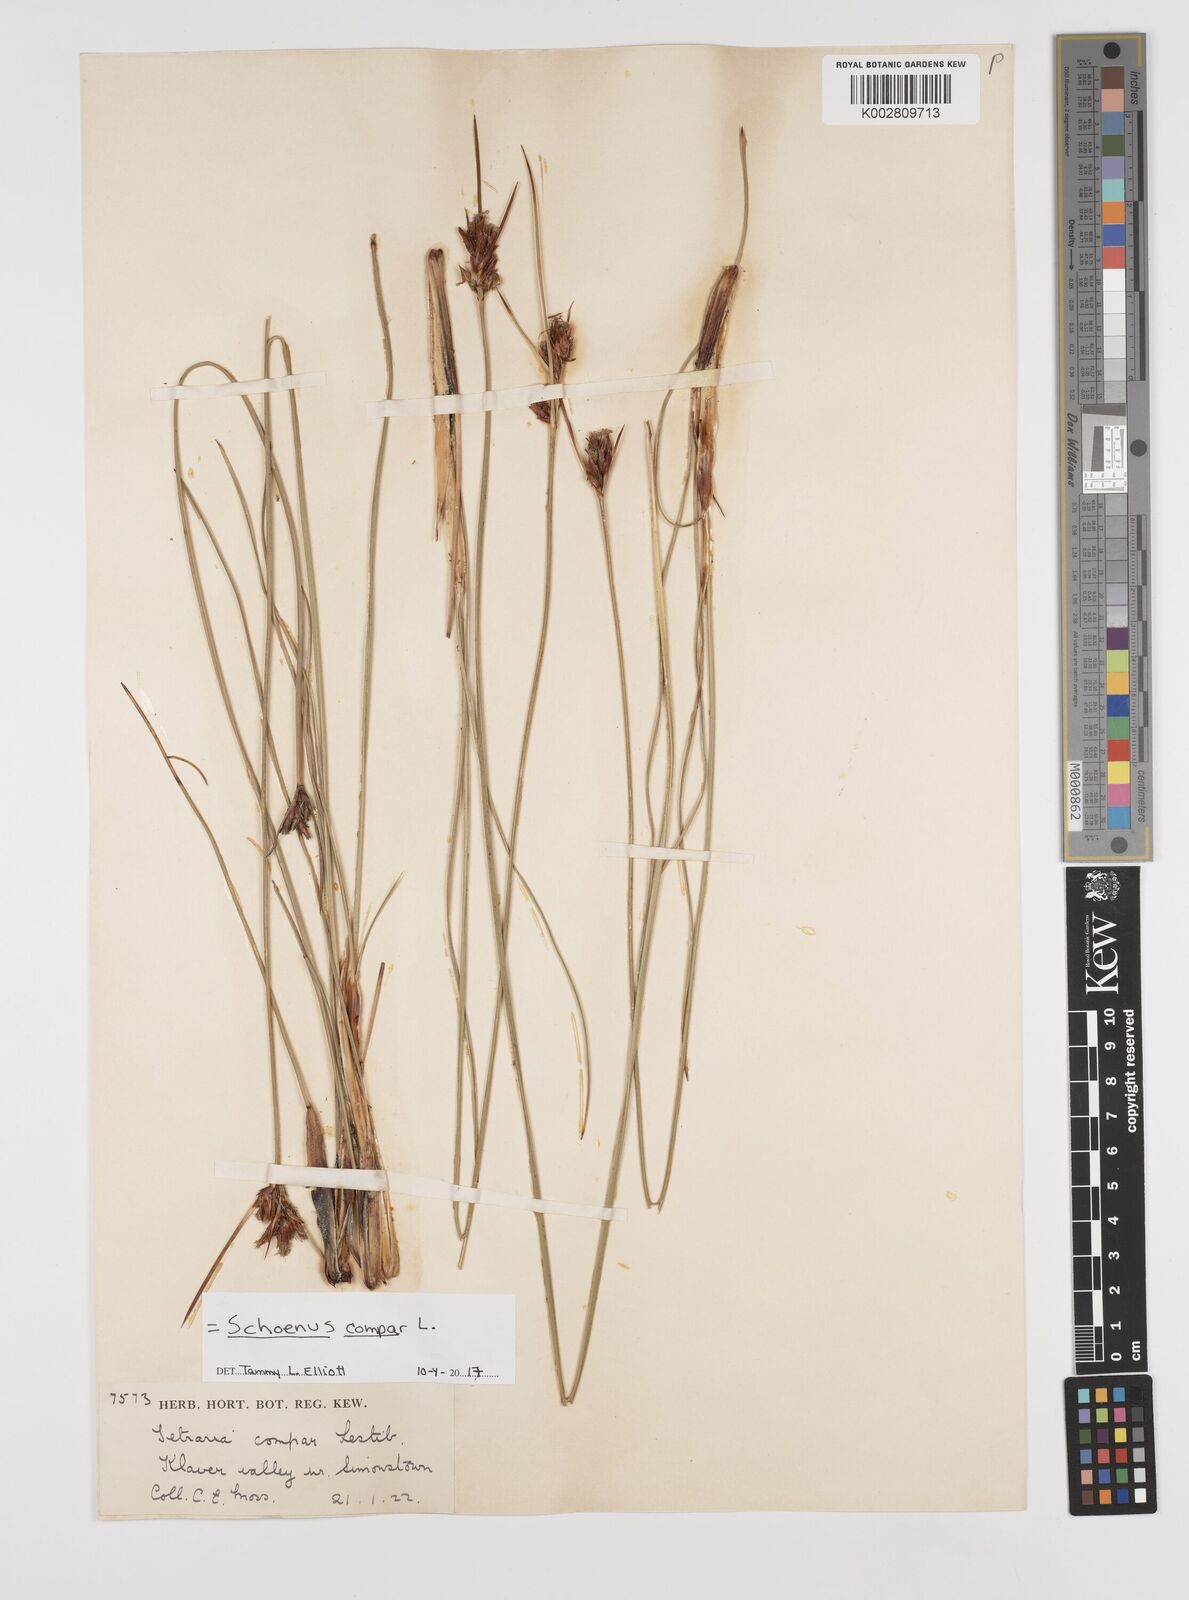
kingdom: Plantae
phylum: Tracheophyta
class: Liliopsida
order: Poales
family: Cyperaceae
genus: Schoenus
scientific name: Schoenus compar
